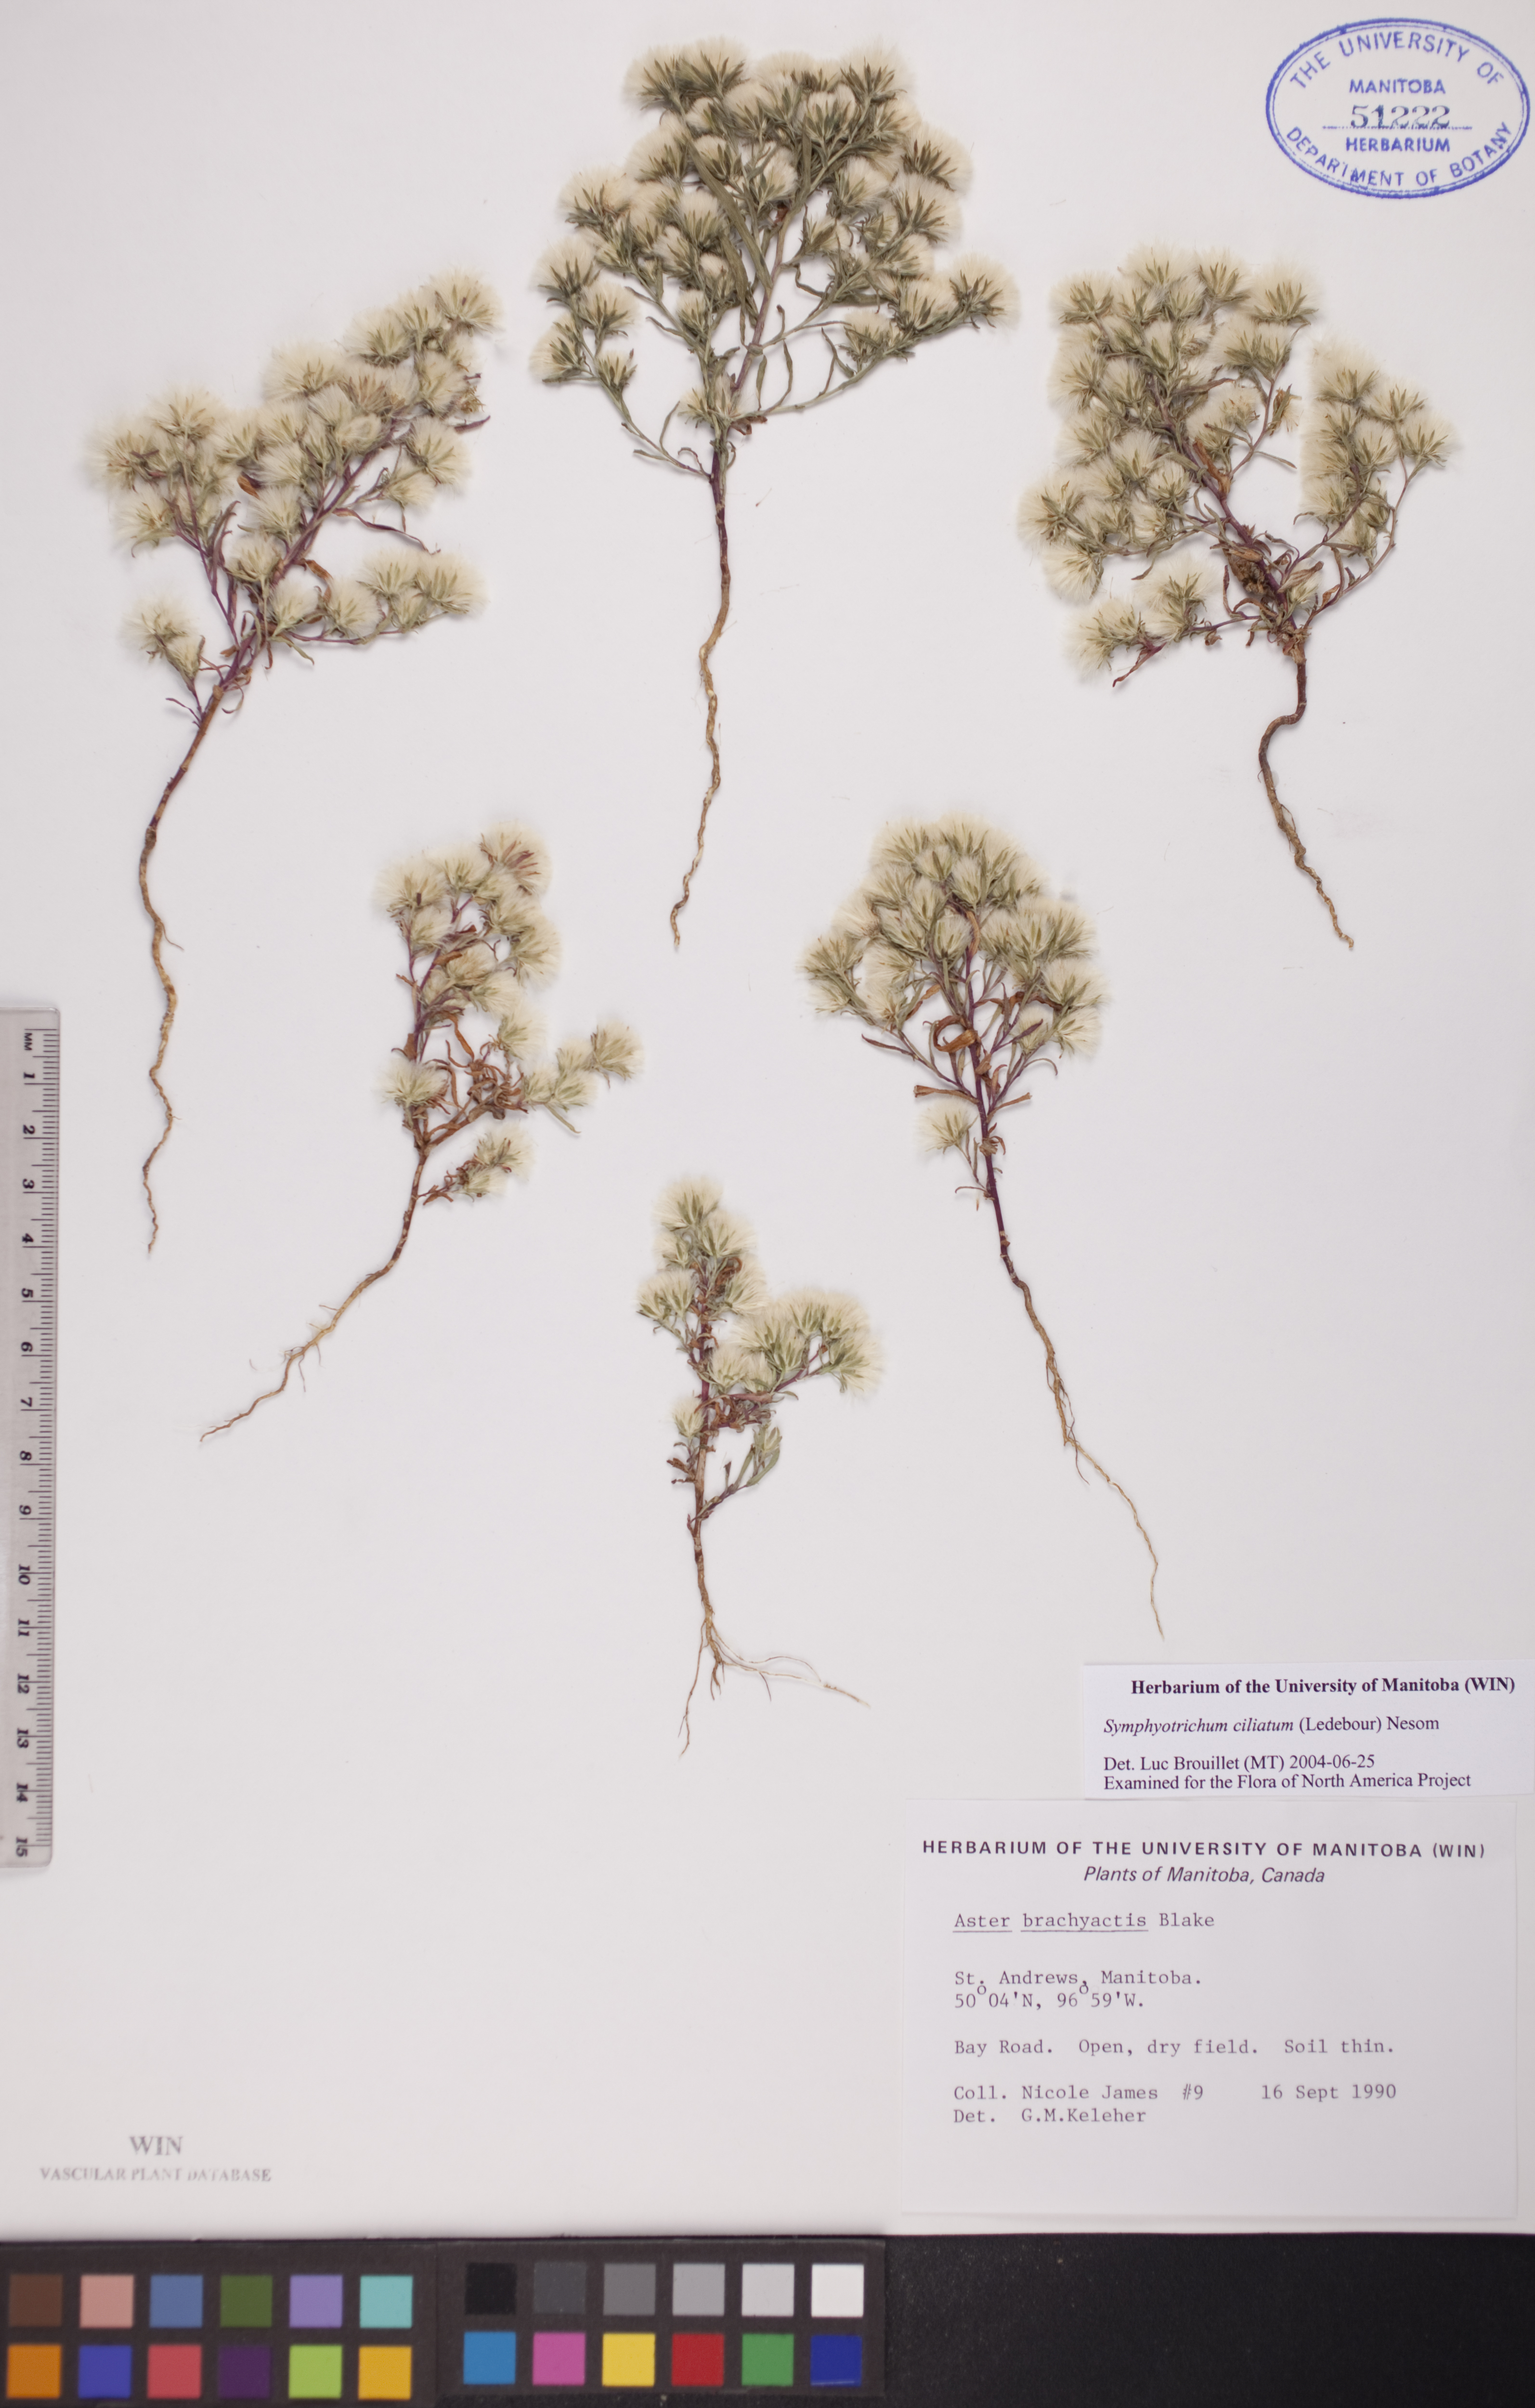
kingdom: Plantae
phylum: Tracheophyta
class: Magnoliopsida
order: Asterales
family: Asteraceae
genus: Symphyotrichum
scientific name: Symphyotrichum ciliatum
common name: Rayless annual aster
